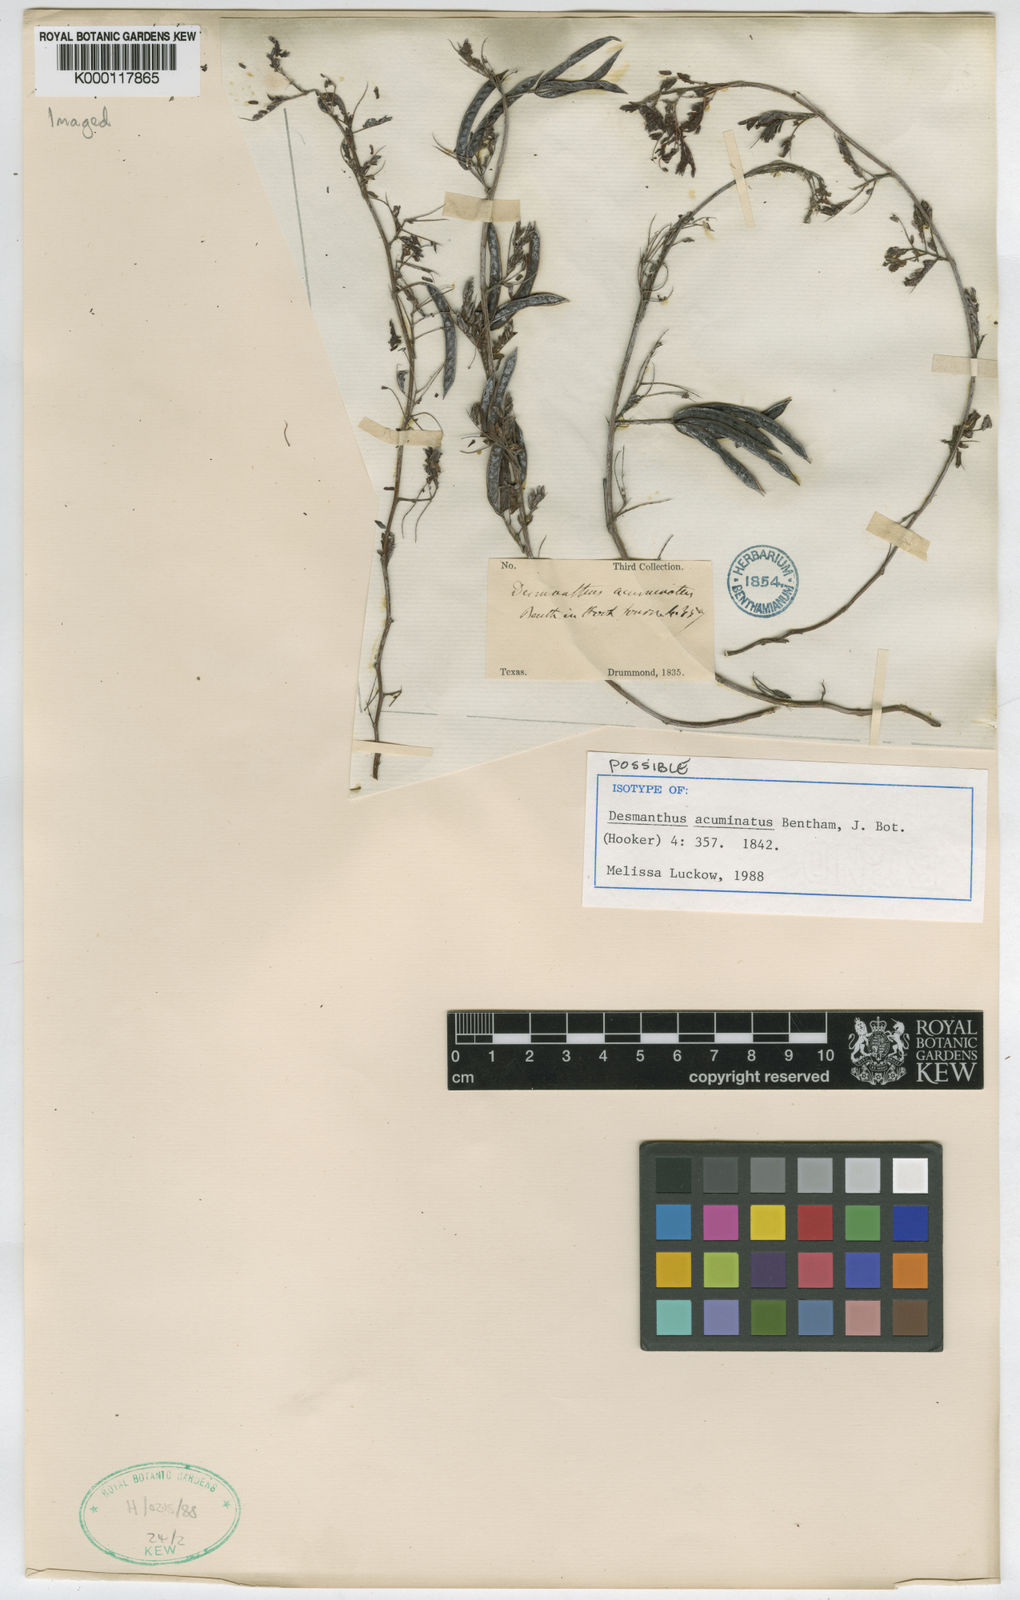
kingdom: Plantae
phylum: Tracheophyta
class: Magnoliopsida
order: Fabales
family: Fabaceae
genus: Desmanthus
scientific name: Desmanthus acuminatus
